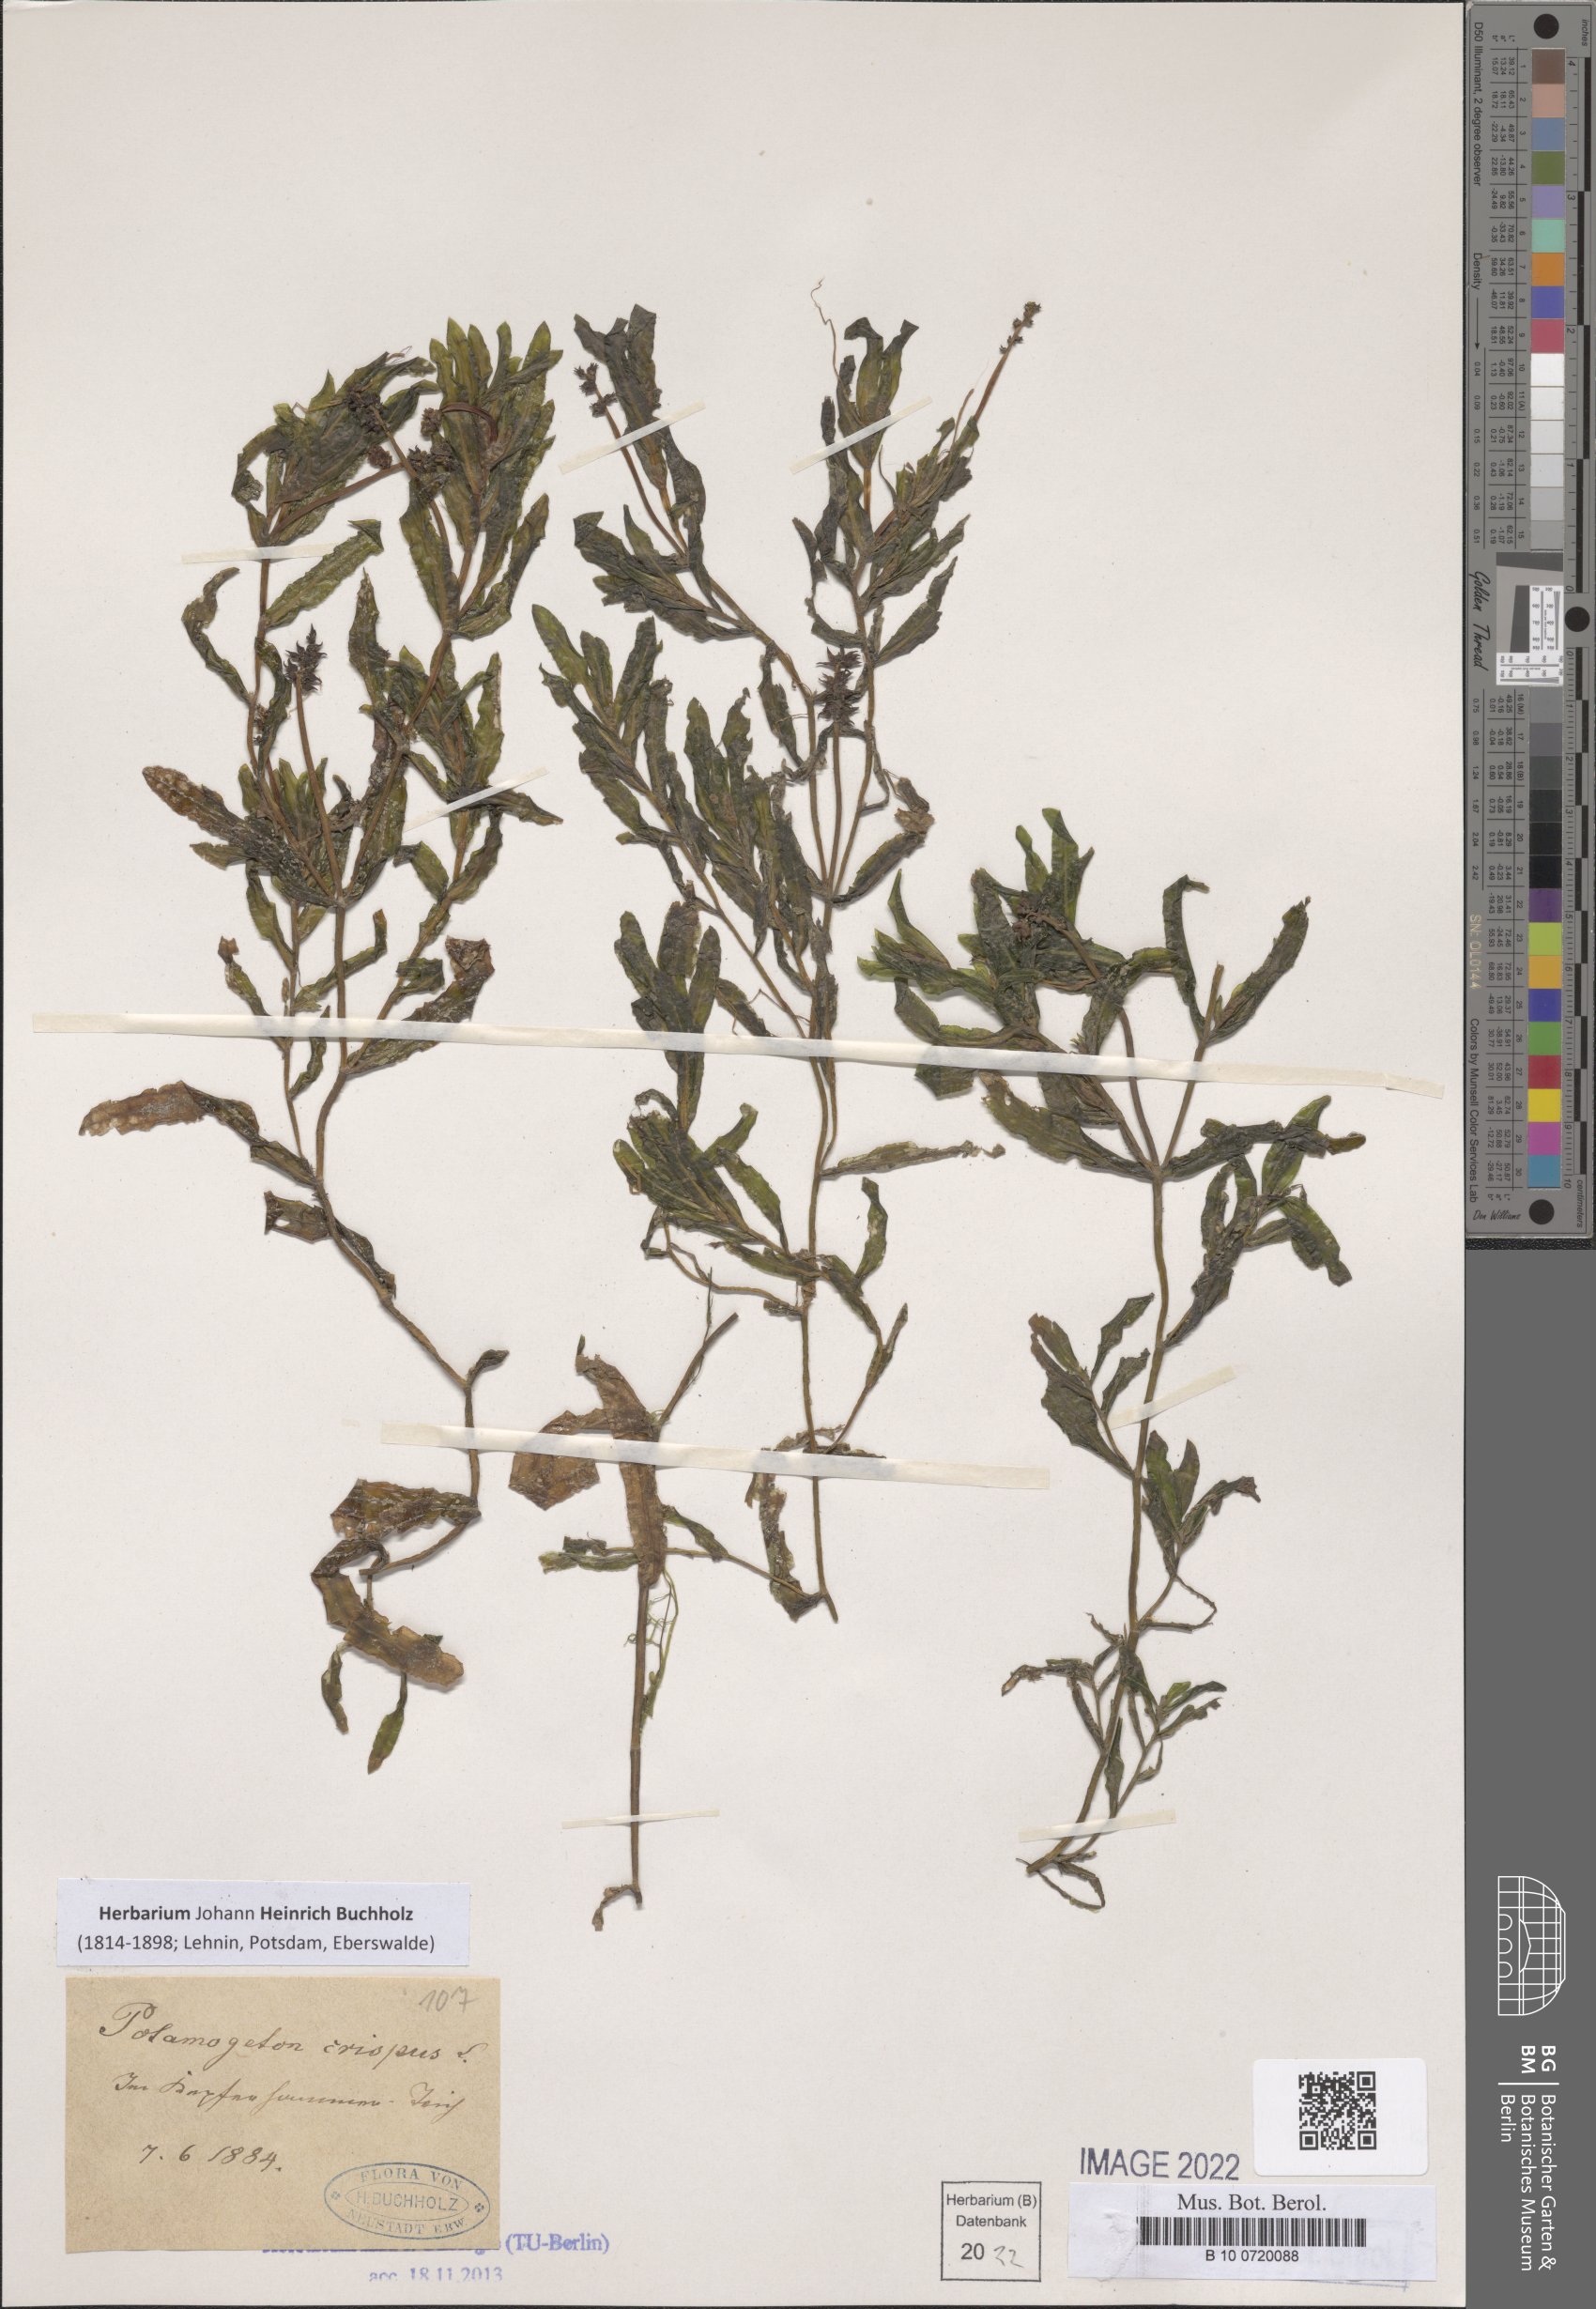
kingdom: Plantae
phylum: Tracheophyta
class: Liliopsida
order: Alismatales
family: Potamogetonaceae
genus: Potamogeton
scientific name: Potamogeton crispus
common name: Curled pondweed
